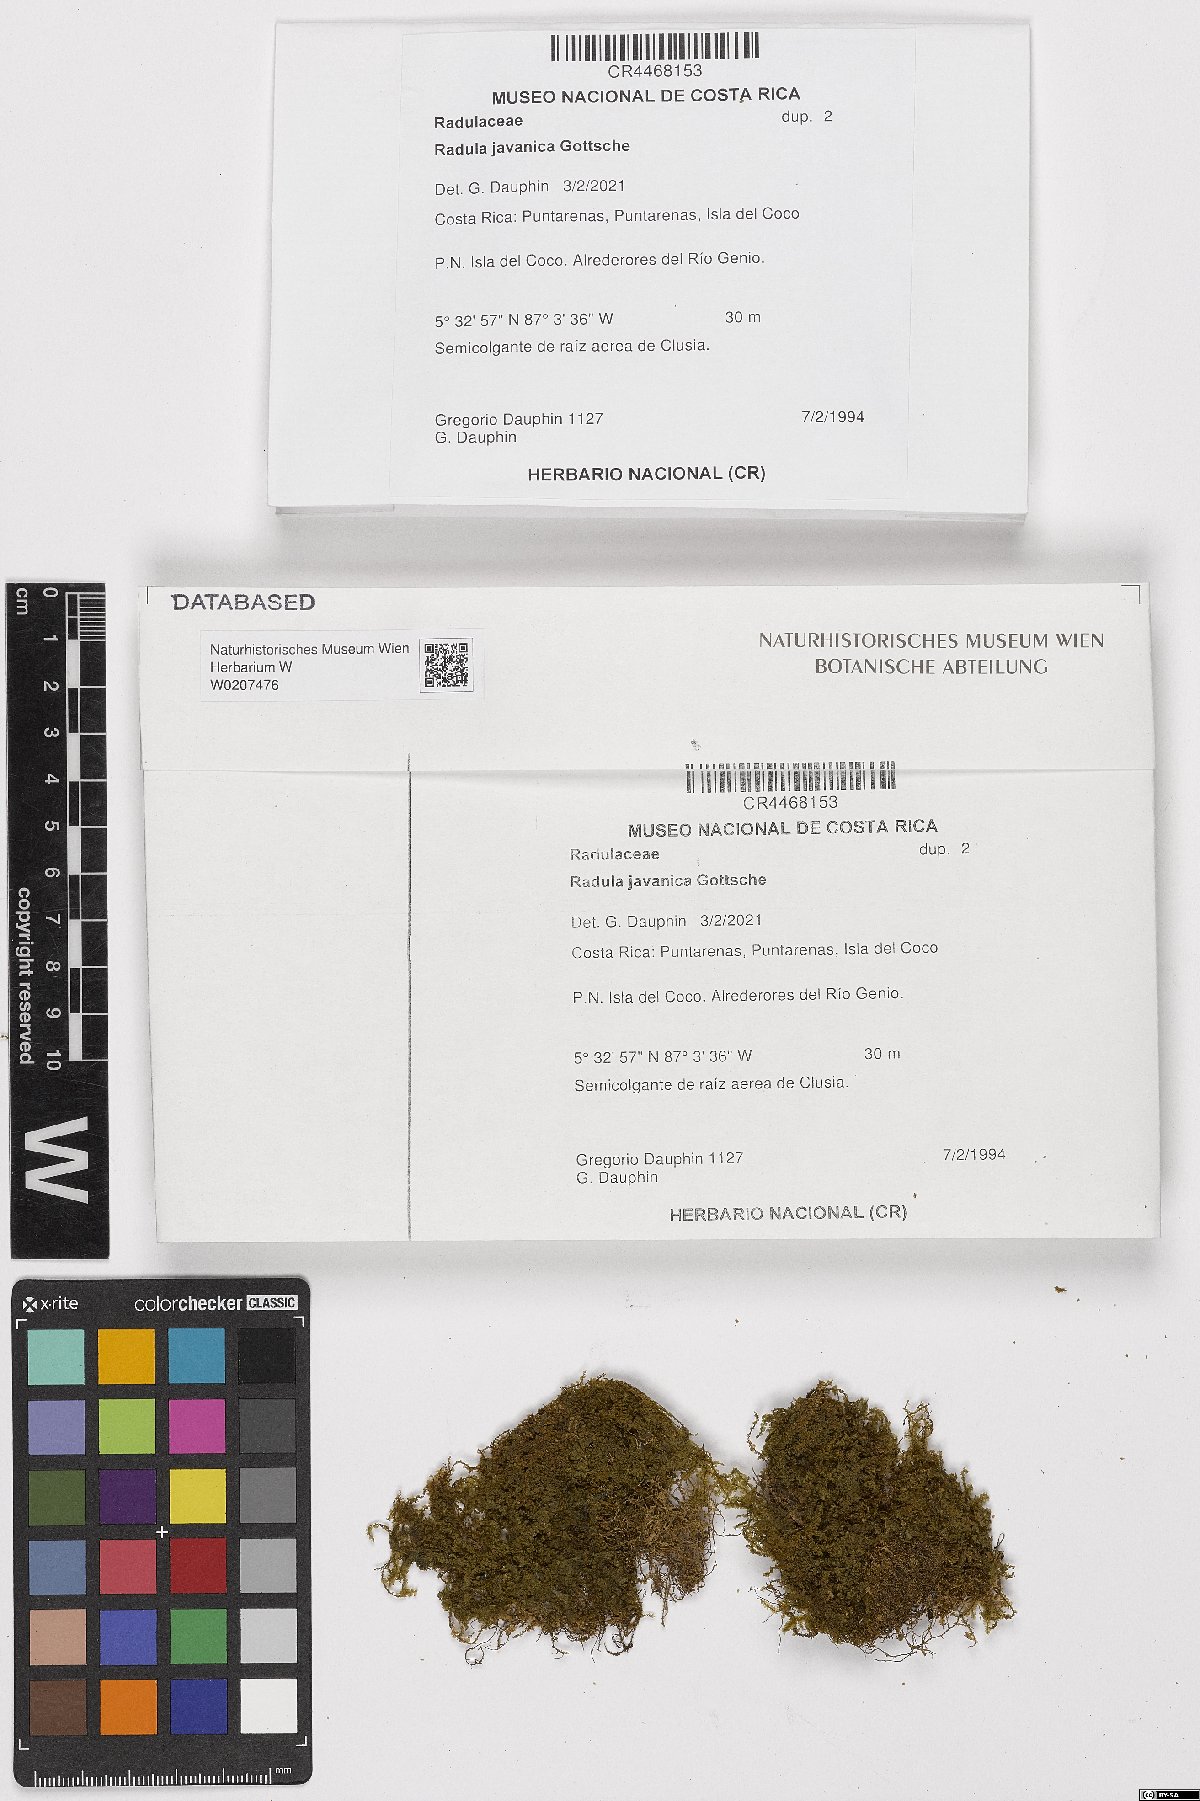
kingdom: Plantae
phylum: Marchantiophyta
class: Jungermanniopsida
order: Porellales
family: Radulaceae
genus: Radula
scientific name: Radula javanica
